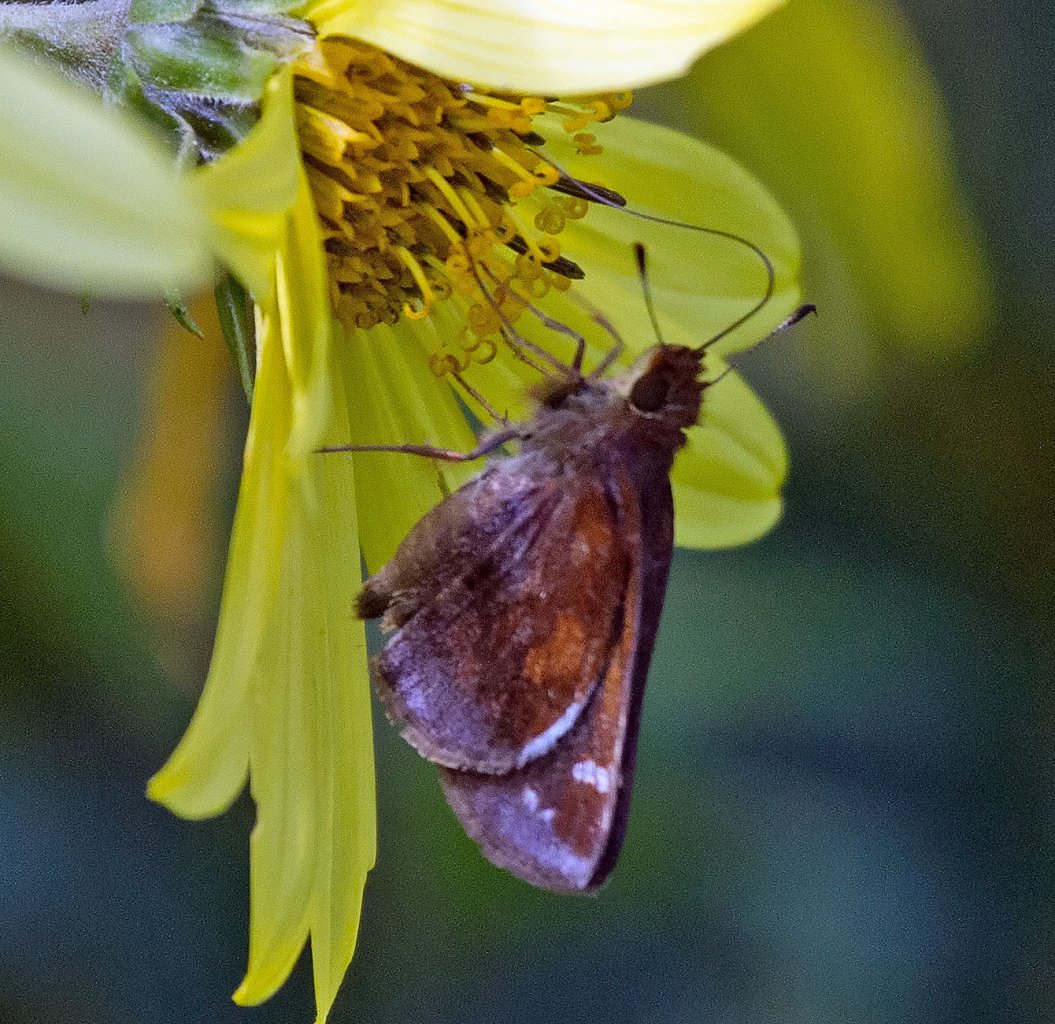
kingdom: Animalia
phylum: Arthropoda
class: Insecta
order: Lepidoptera
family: Hesperiidae
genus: Lon
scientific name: Lon zabulon
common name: Zabulon Skipper
